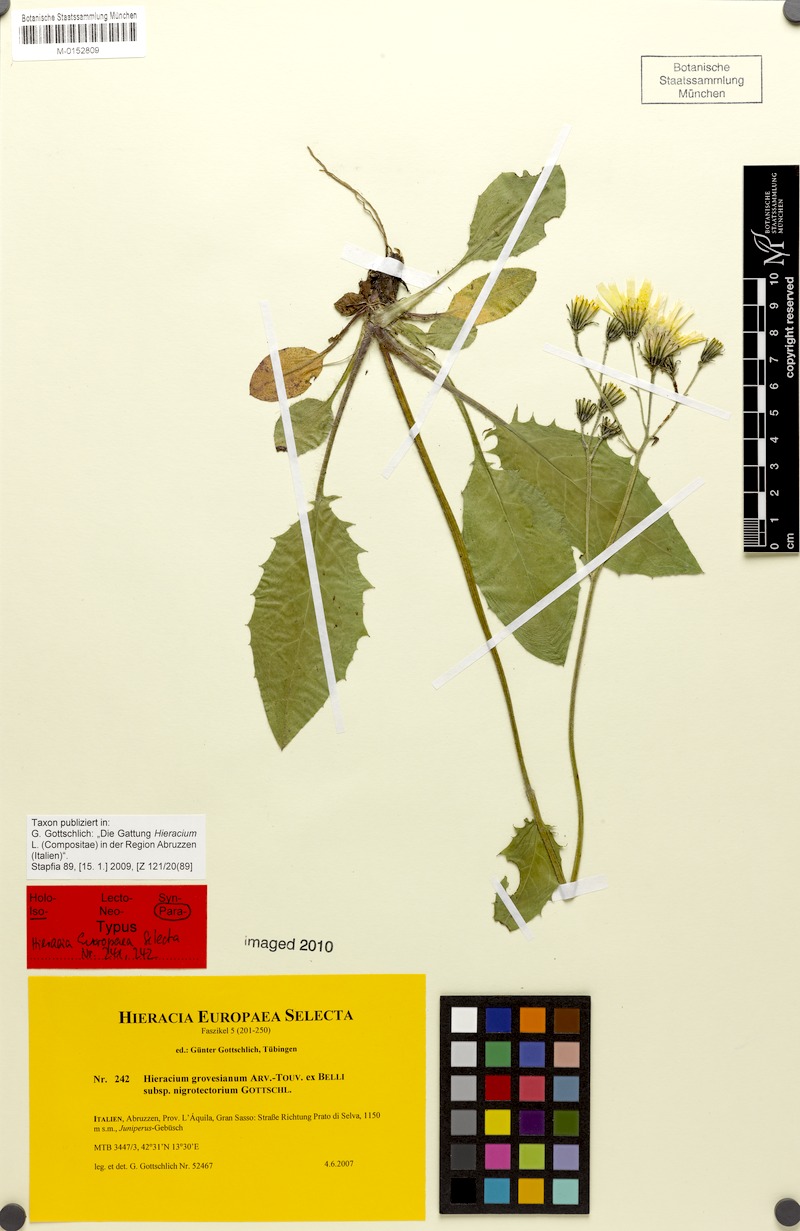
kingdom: Plantae
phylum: Tracheophyta
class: Magnoliopsida
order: Asterales
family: Asteraceae
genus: Hieracium
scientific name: Hieracium grovesianum
